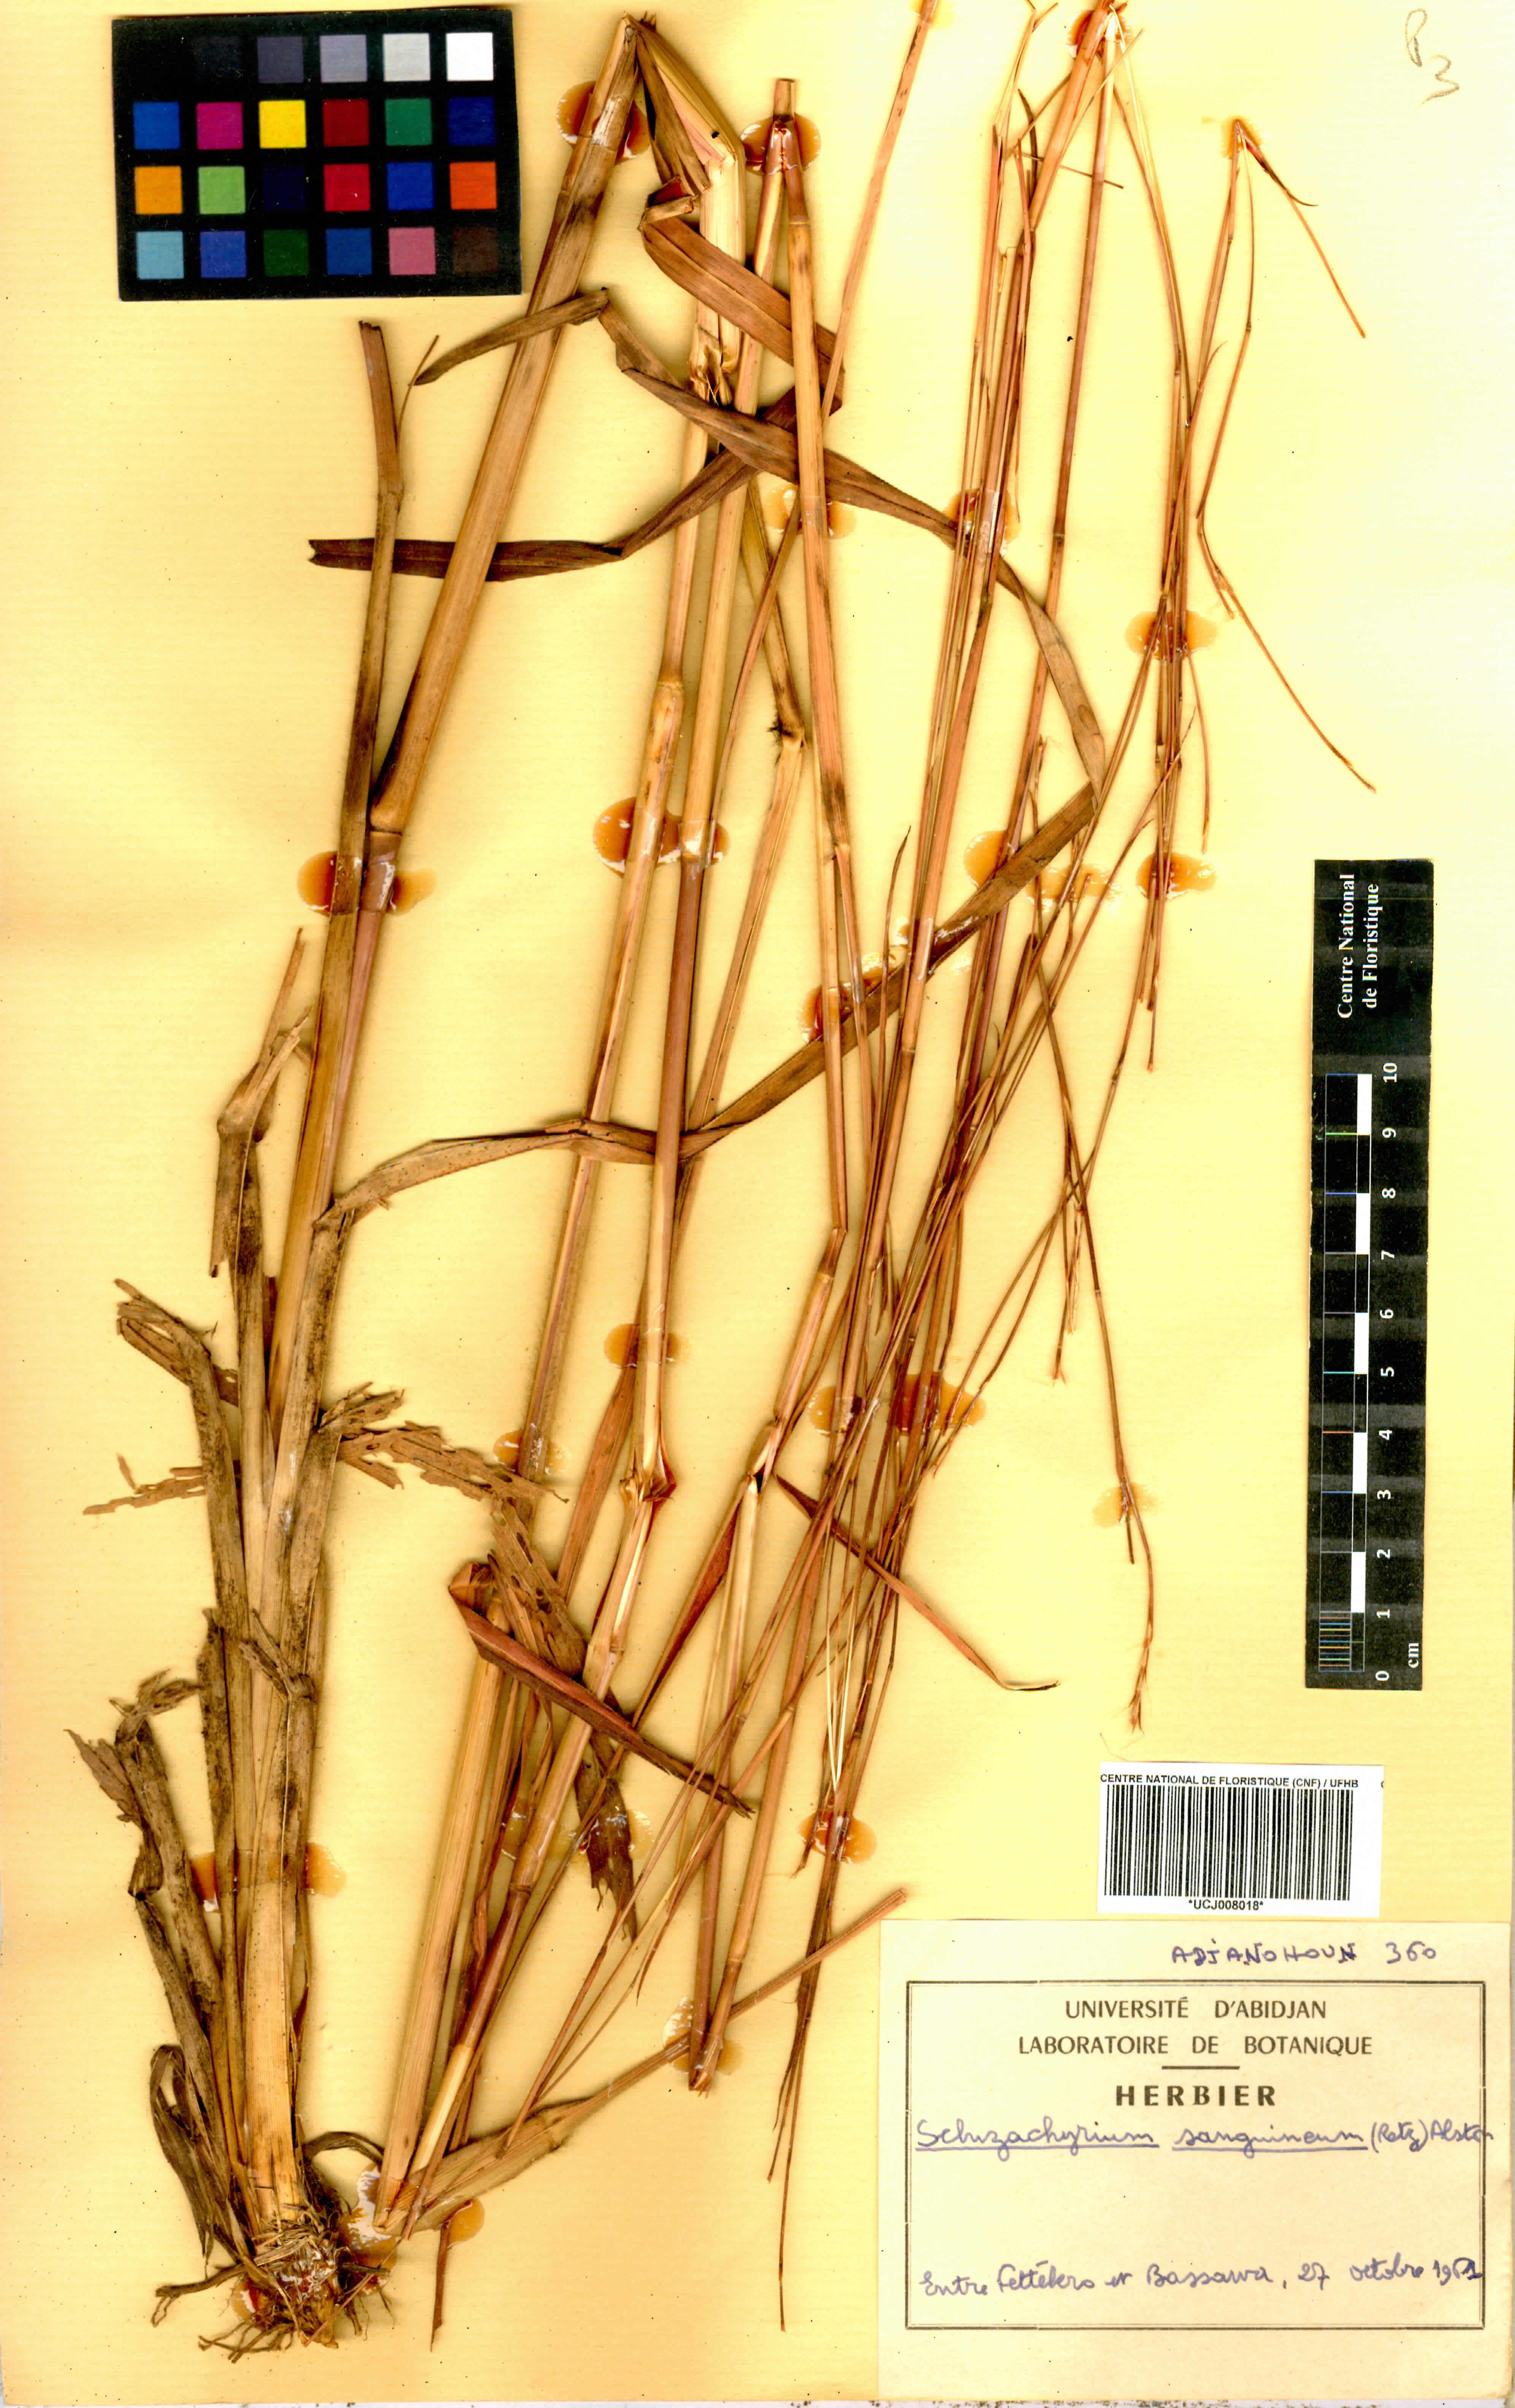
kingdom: Plantae
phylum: Tracheophyta
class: Liliopsida
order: Poales
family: Poaceae
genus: Schizachyrium
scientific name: Schizachyrium sanguineum
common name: Crimson bluestem
